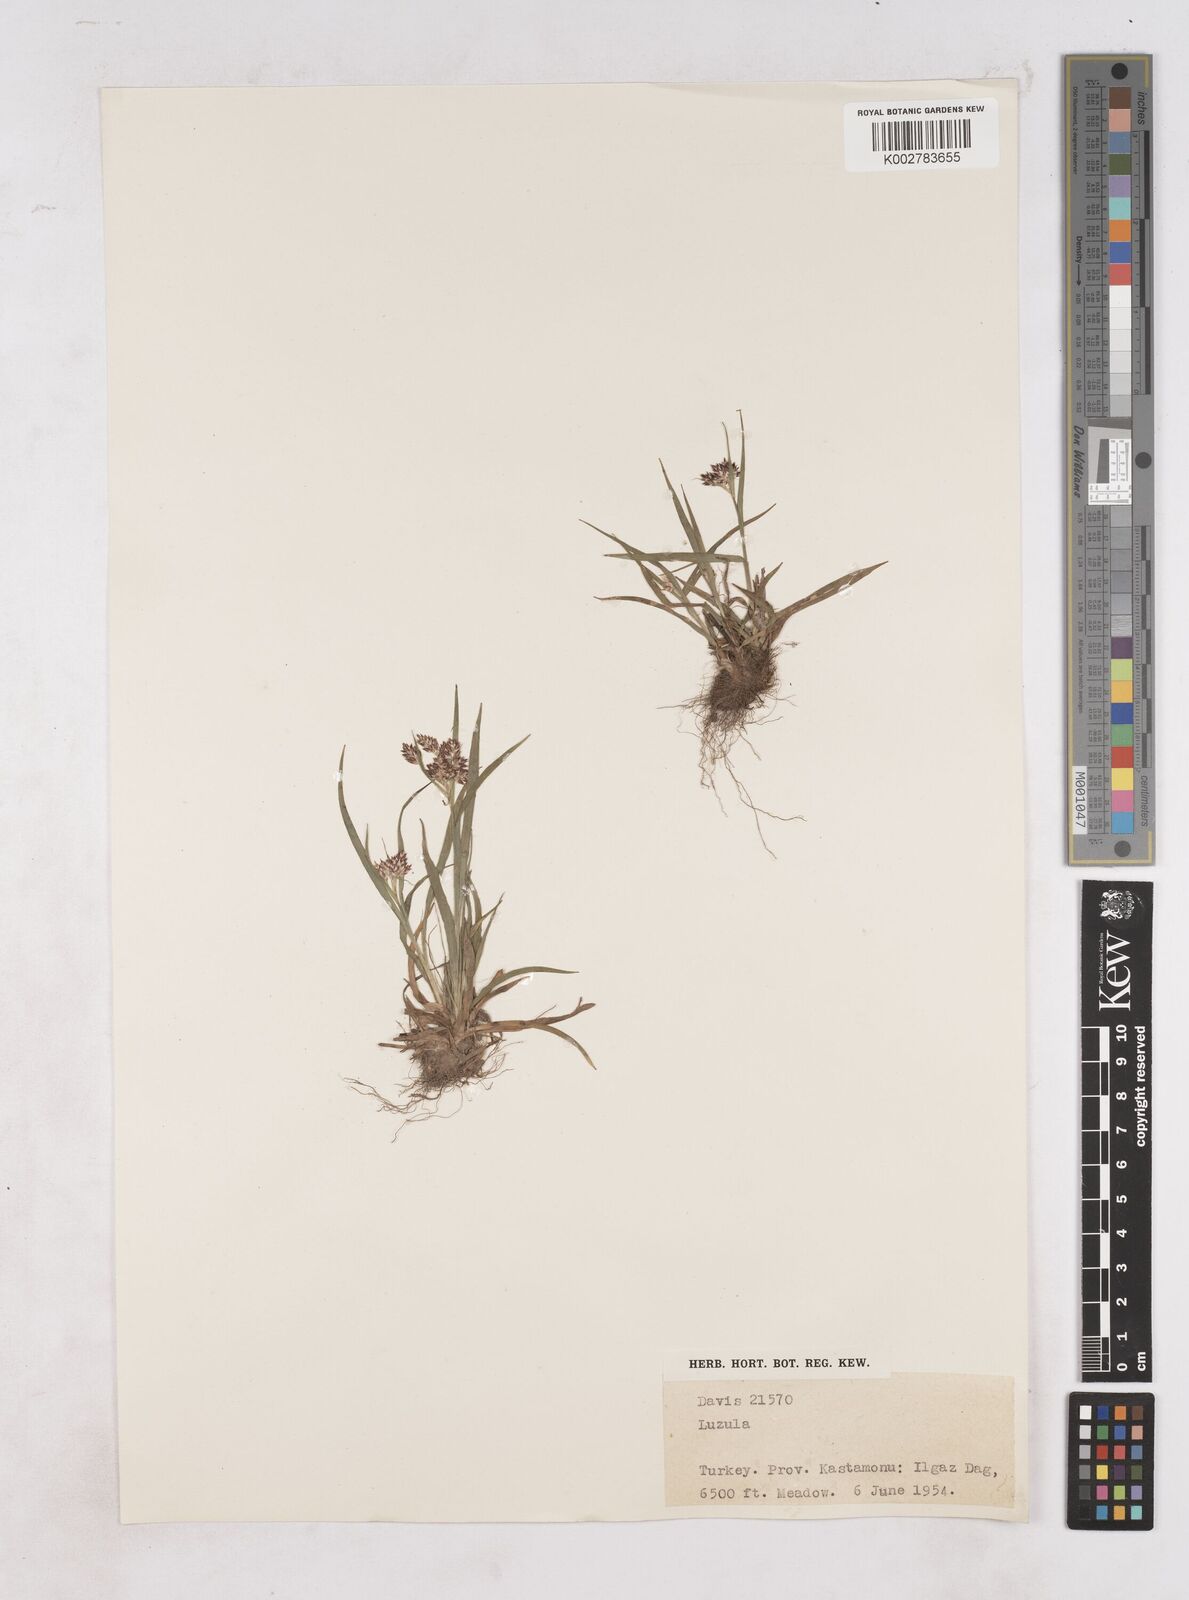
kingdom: Plantae
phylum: Tracheophyta
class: Liliopsida
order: Poales
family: Juncaceae
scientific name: Juncaceae
